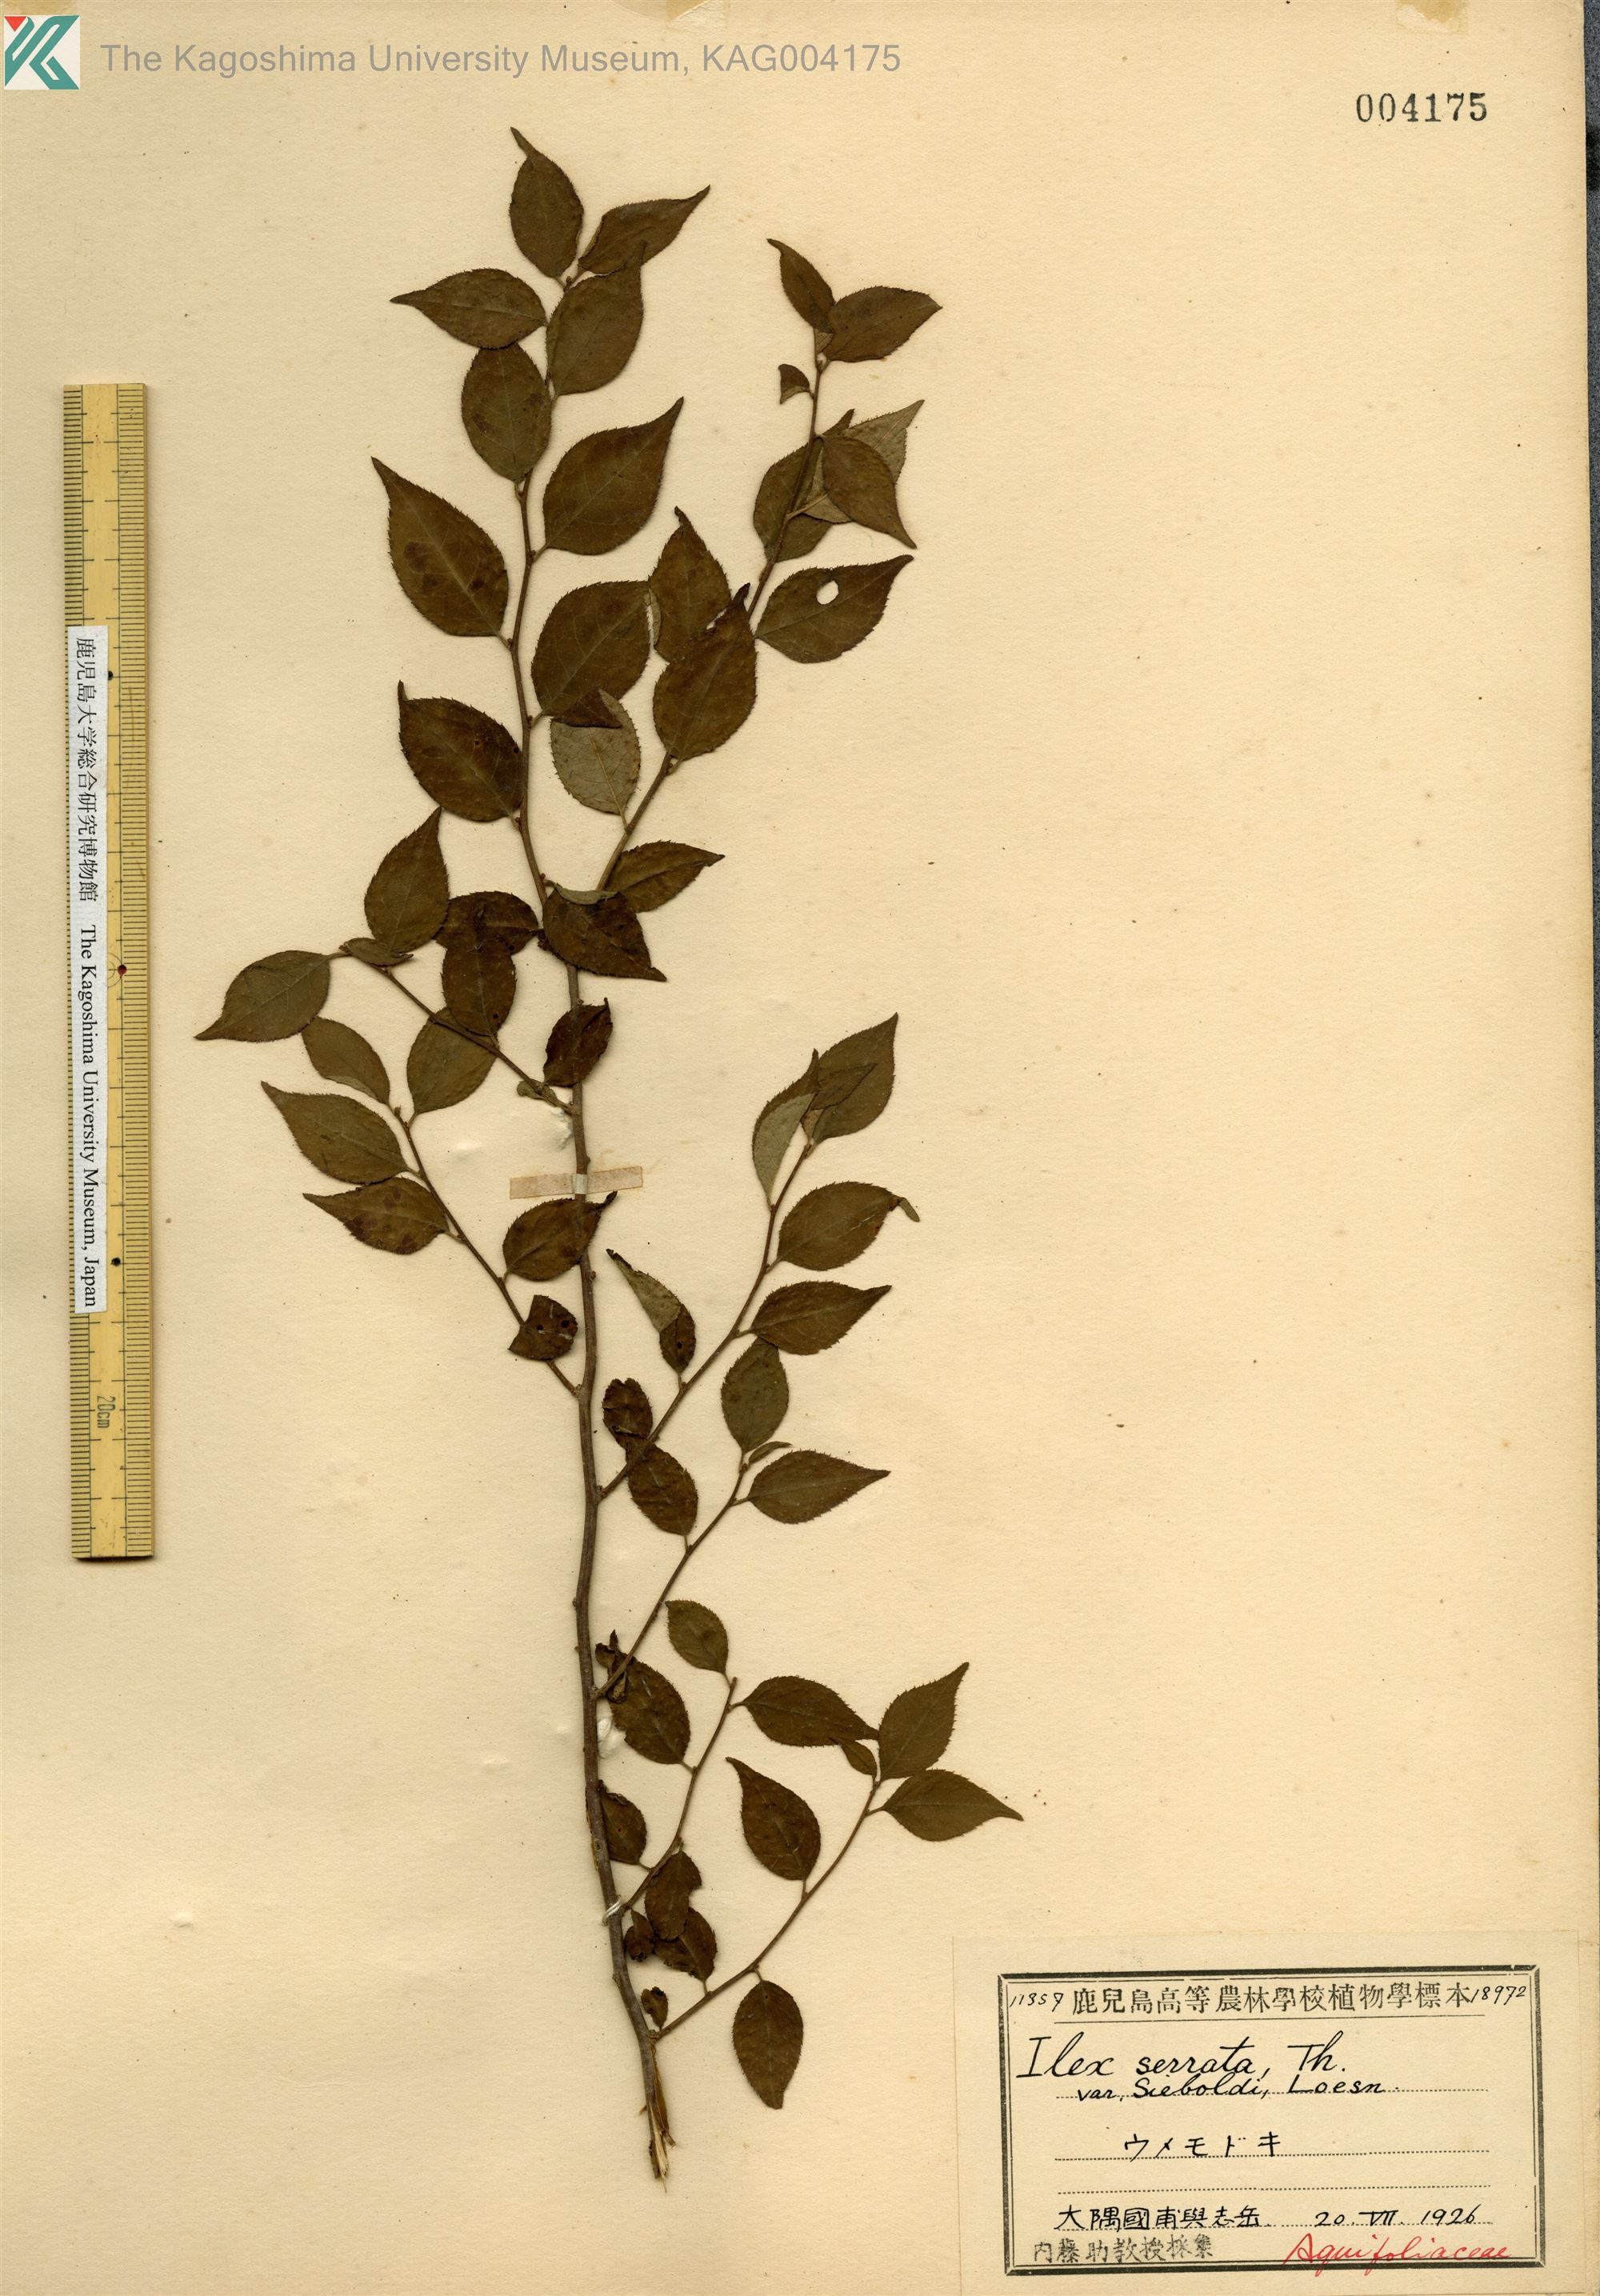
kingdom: Plantae
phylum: Tracheophyta
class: Magnoliopsida
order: Aquifoliales
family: Aquifoliaceae
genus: Ilex
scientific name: Ilex serrata
